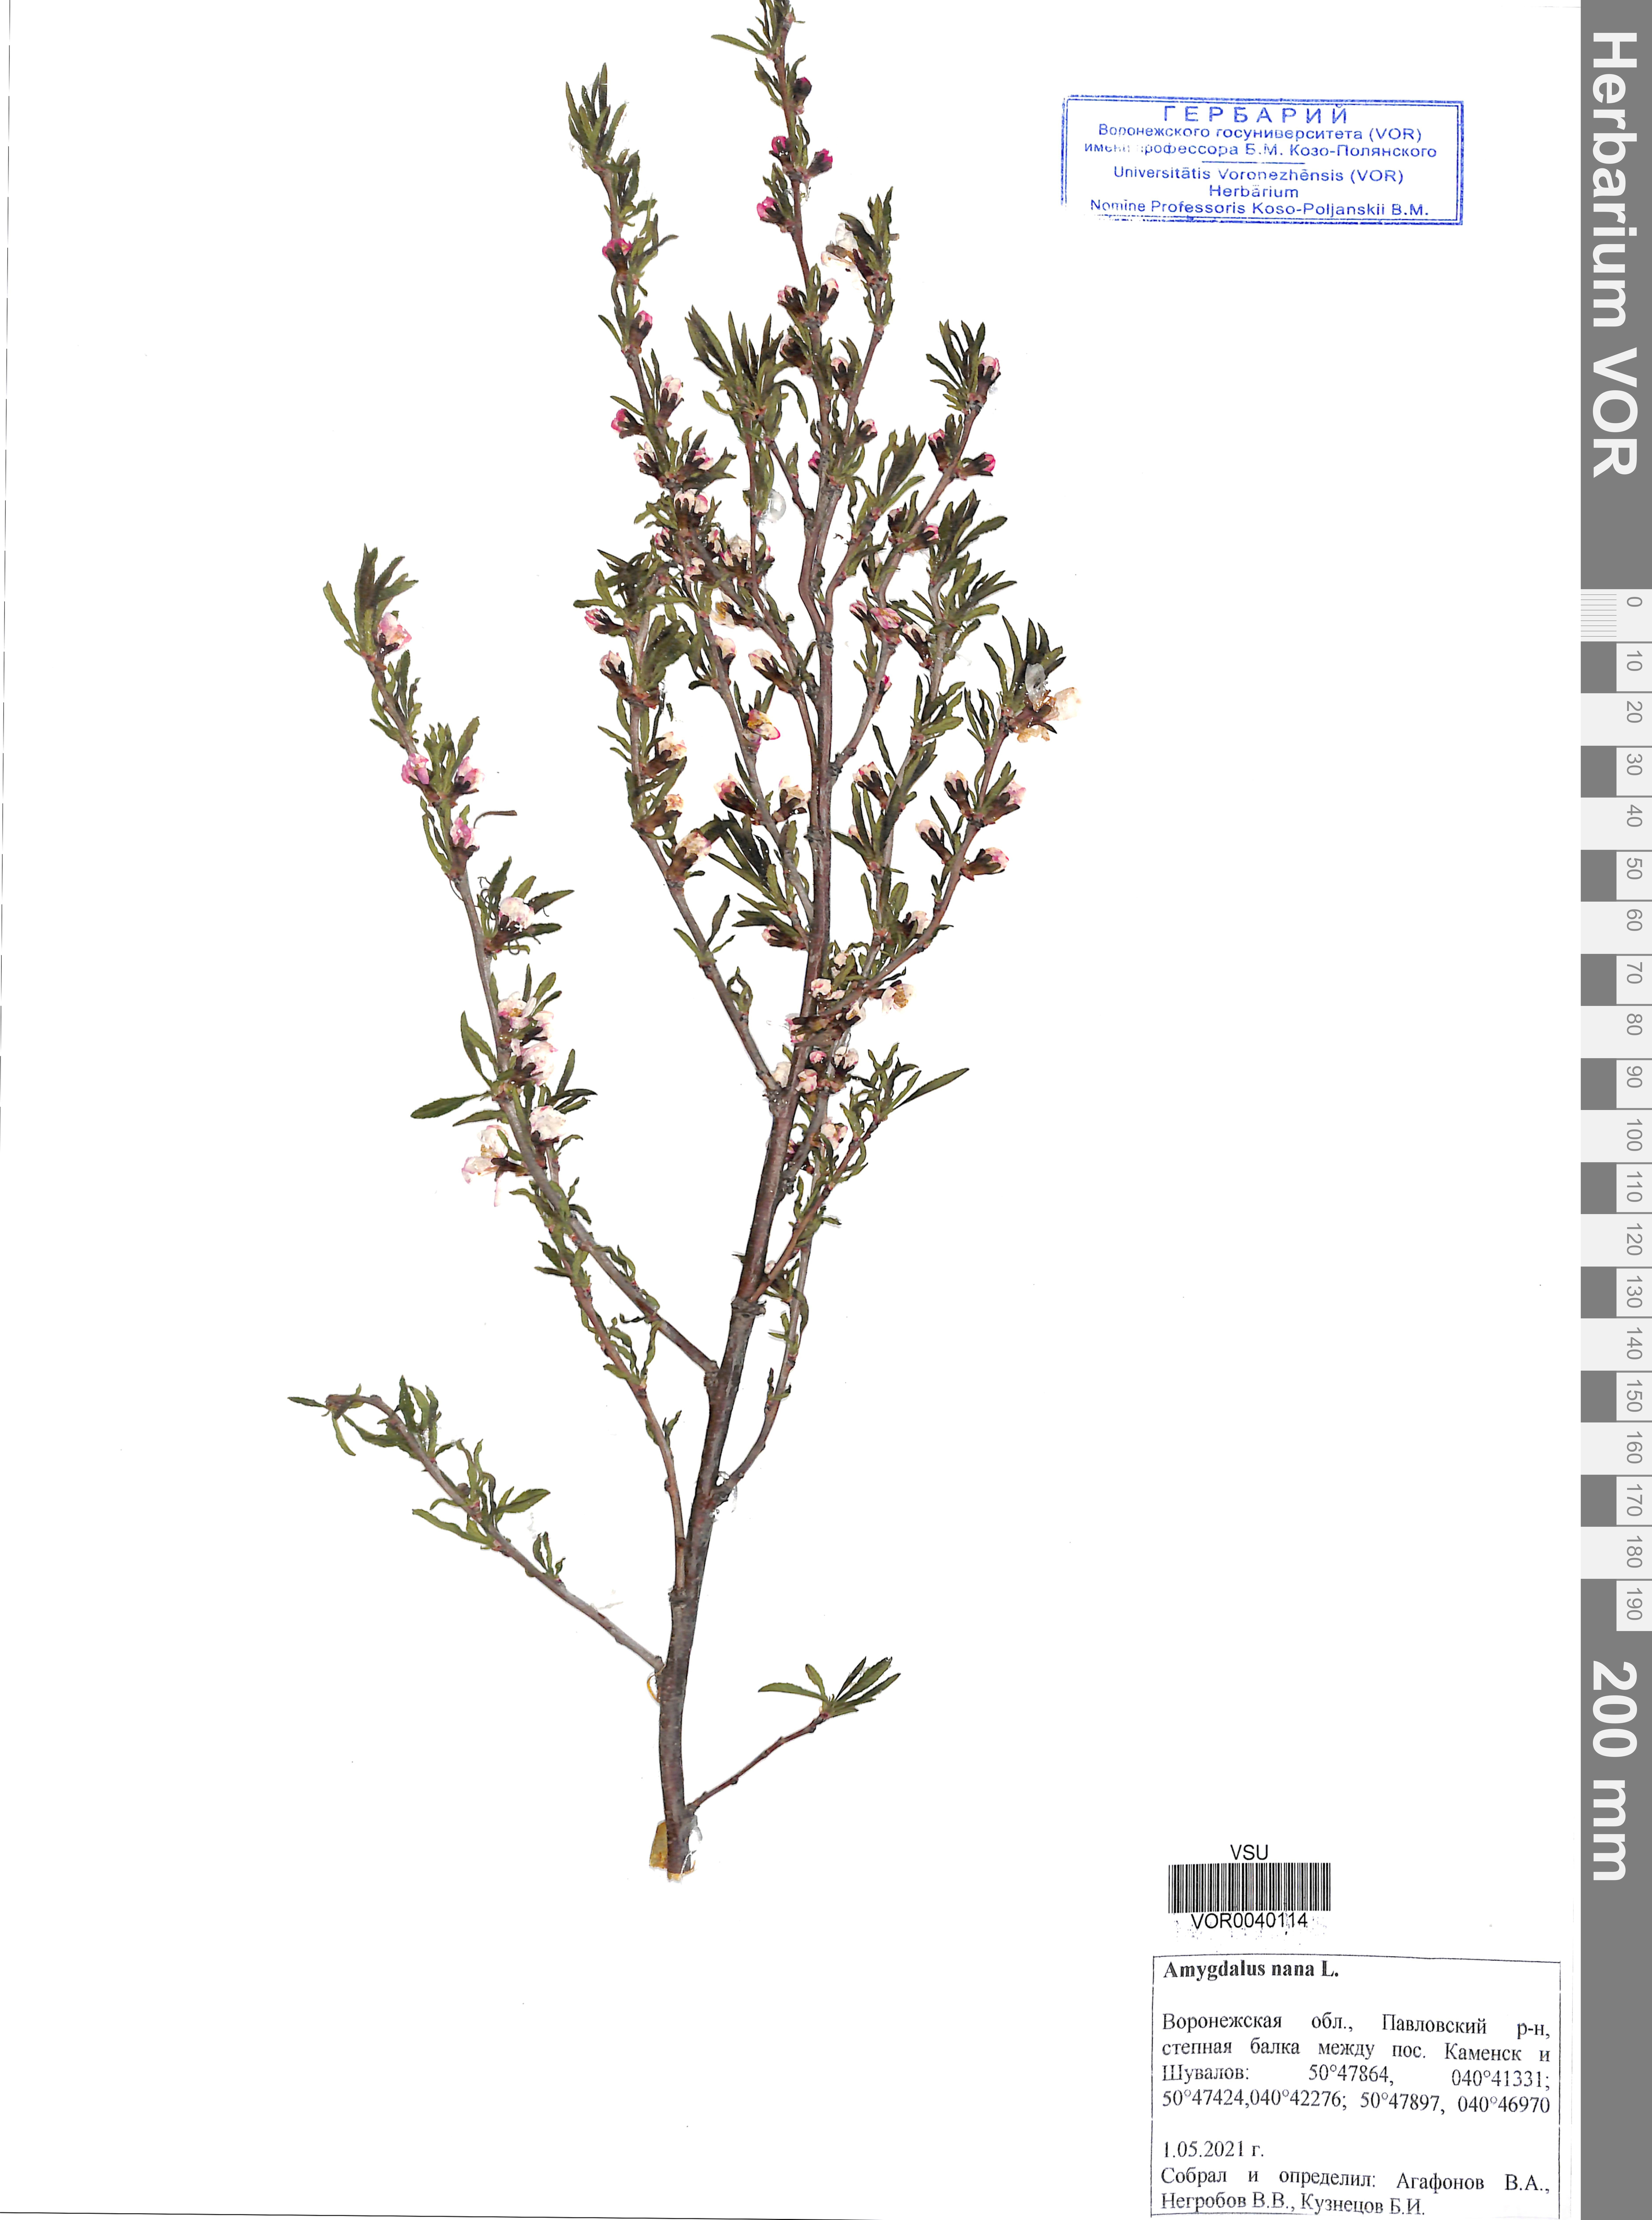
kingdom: Plantae
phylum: Tracheophyta
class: Magnoliopsida
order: Rosales
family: Rosaceae
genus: Prunus
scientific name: Prunus tenella
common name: Dwarf russian almond
